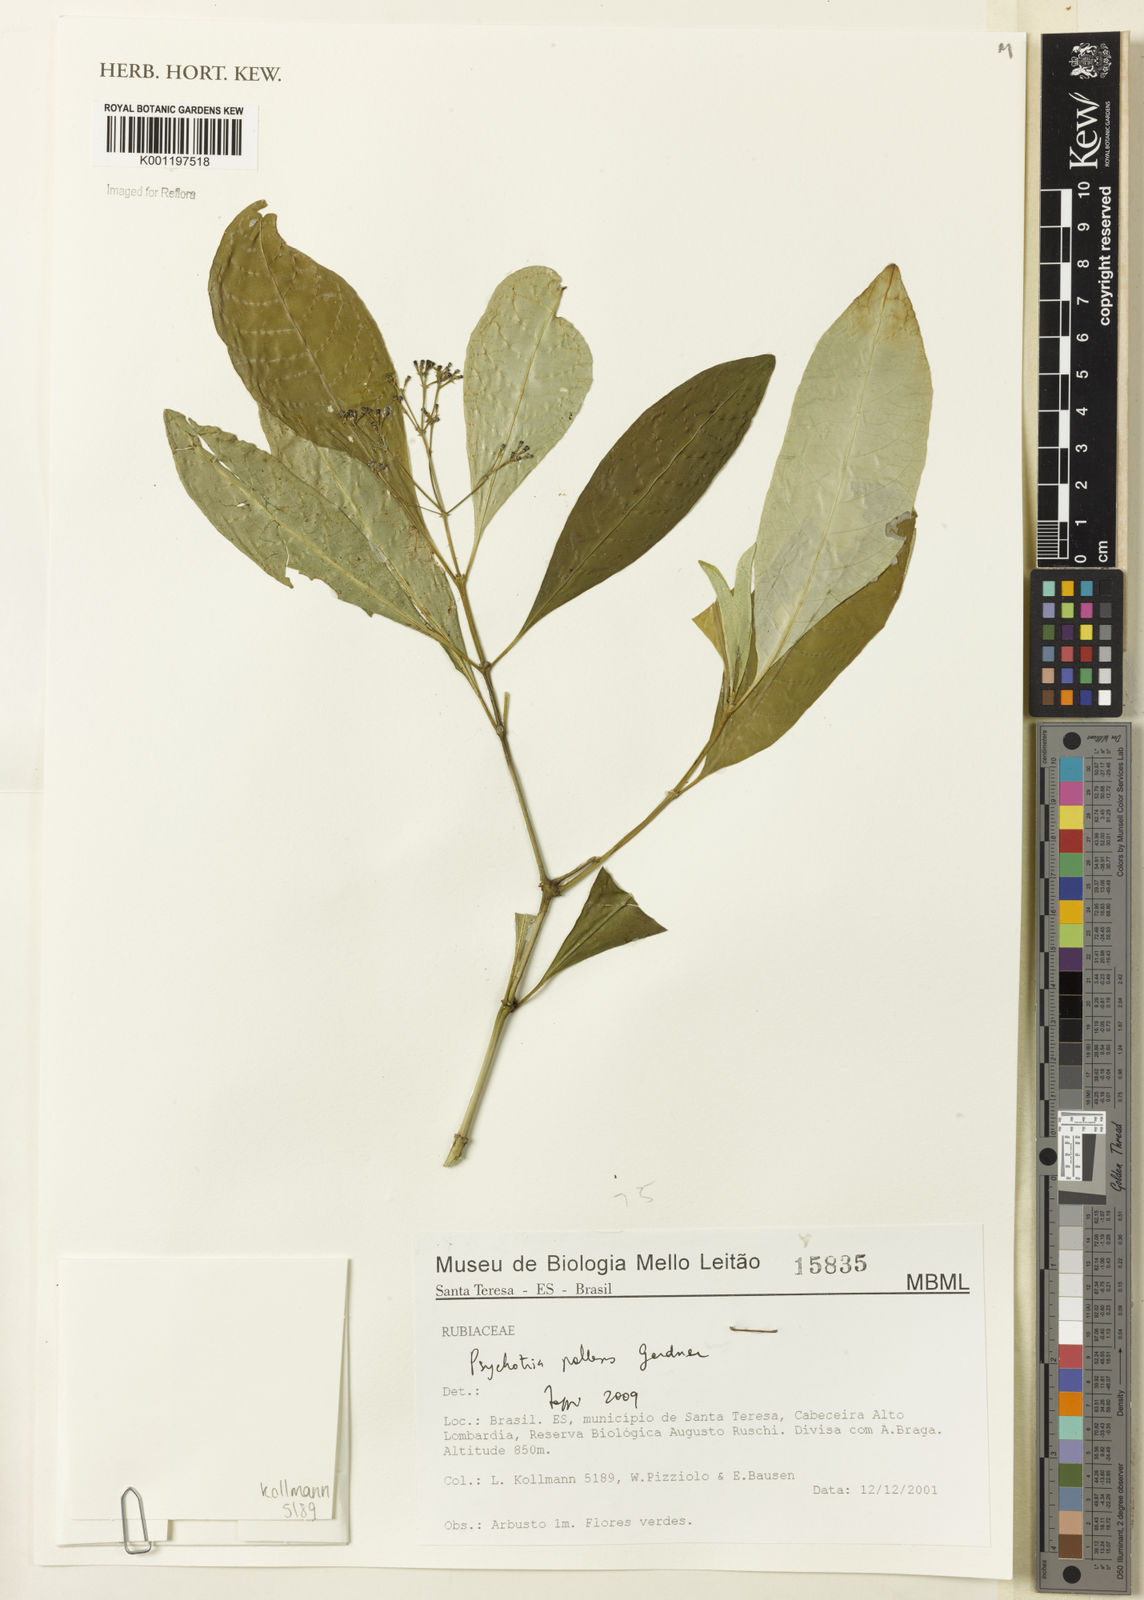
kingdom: Plantae
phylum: Tracheophyta
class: Magnoliopsida
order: Gentianales
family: Rubiaceae
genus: Psychotria
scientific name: Psychotria pallens
